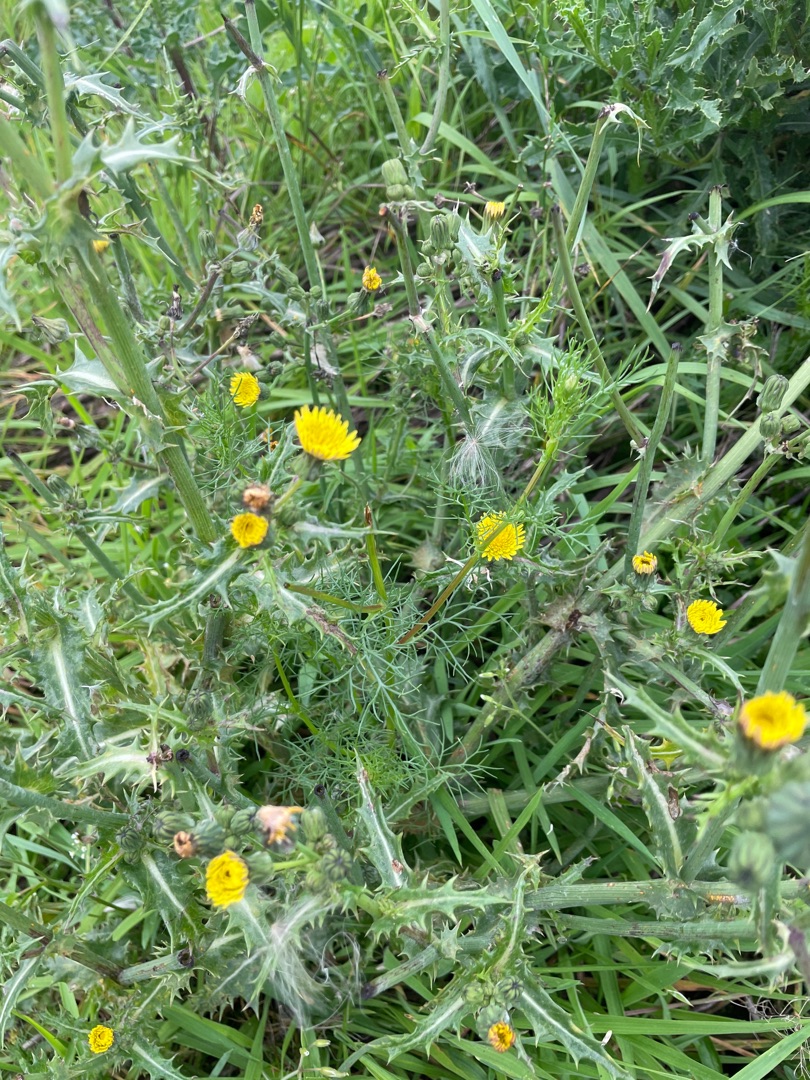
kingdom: Plantae
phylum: Tracheophyta
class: Magnoliopsida
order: Asterales
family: Asteraceae
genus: Sonchus
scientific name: Sonchus asper
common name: Ru svinemælk
